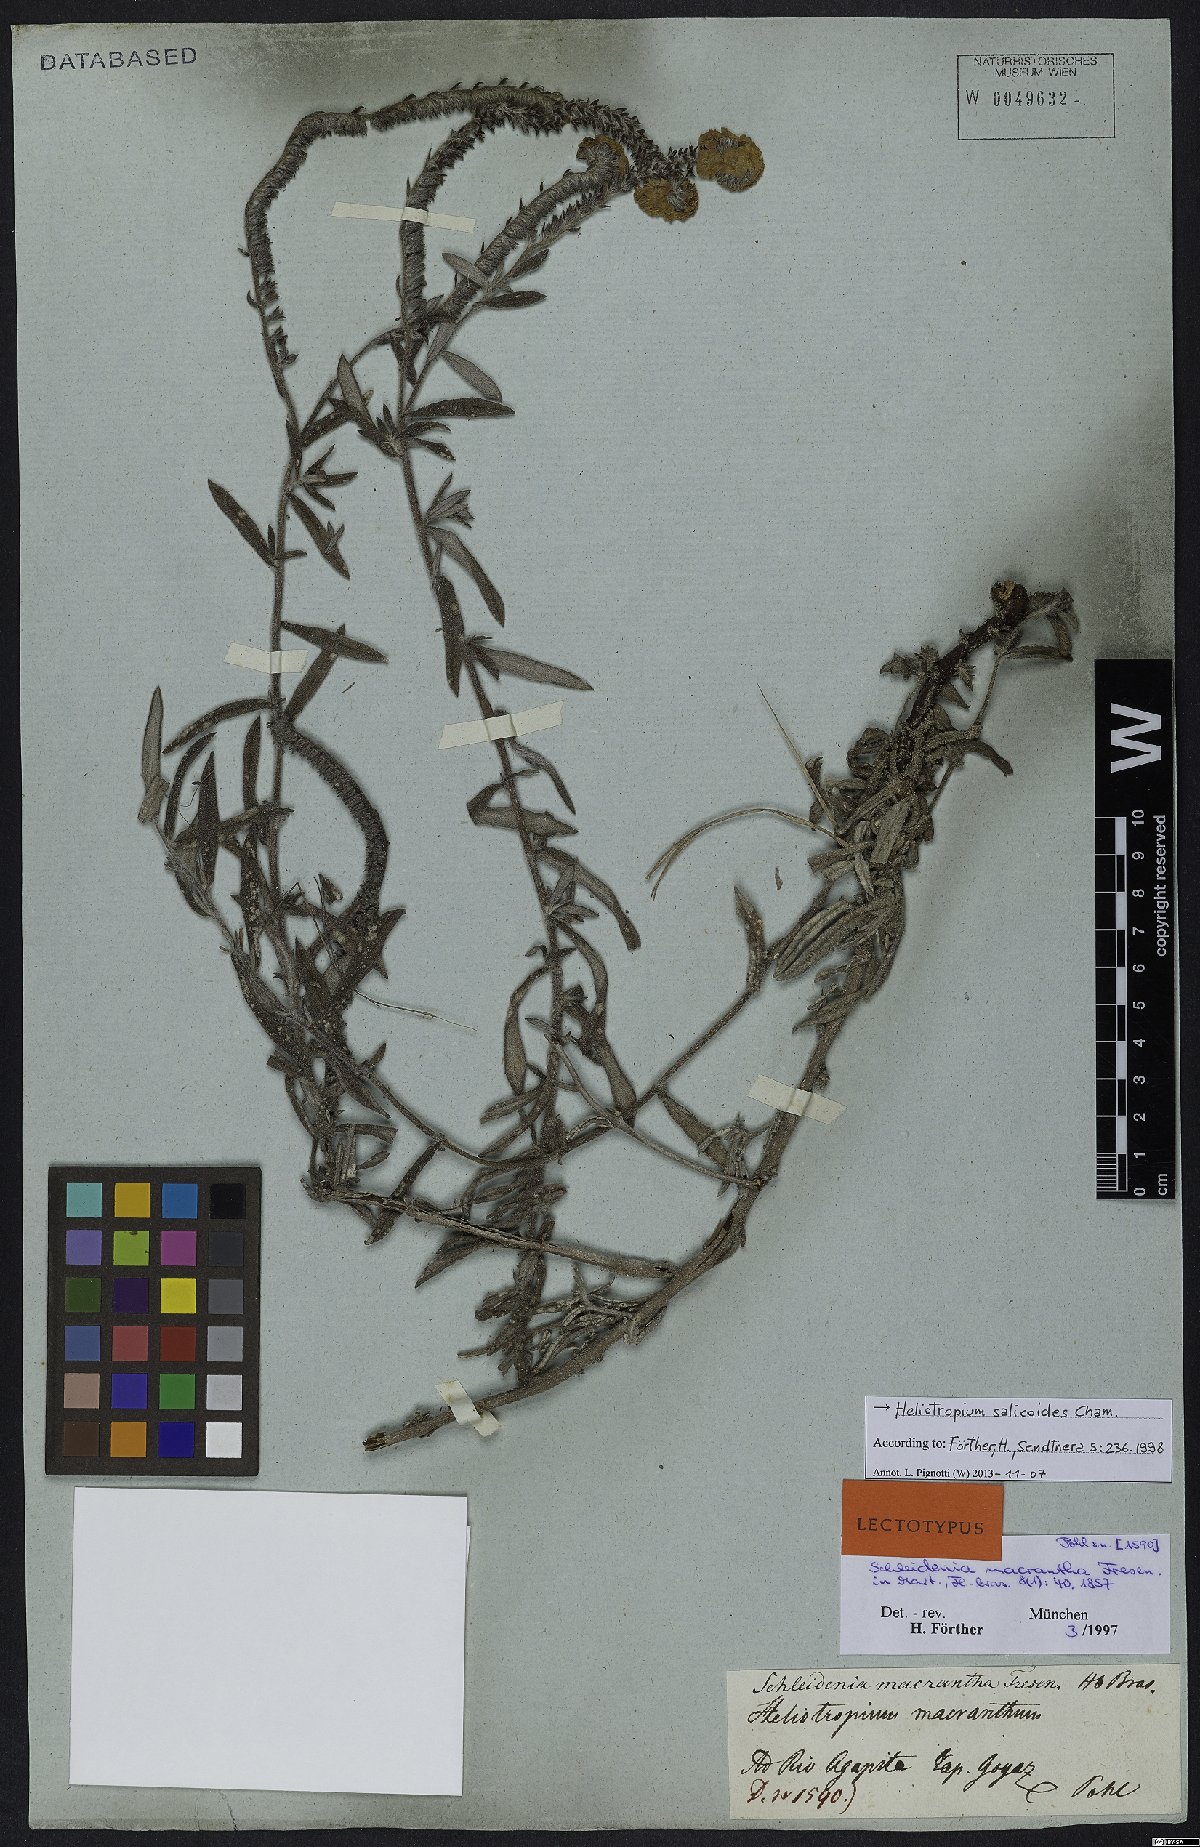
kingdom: Plantae
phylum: Tracheophyta
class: Magnoliopsida
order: Boraginales
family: Heliotropiaceae
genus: Euploca
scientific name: Euploca salicoides
